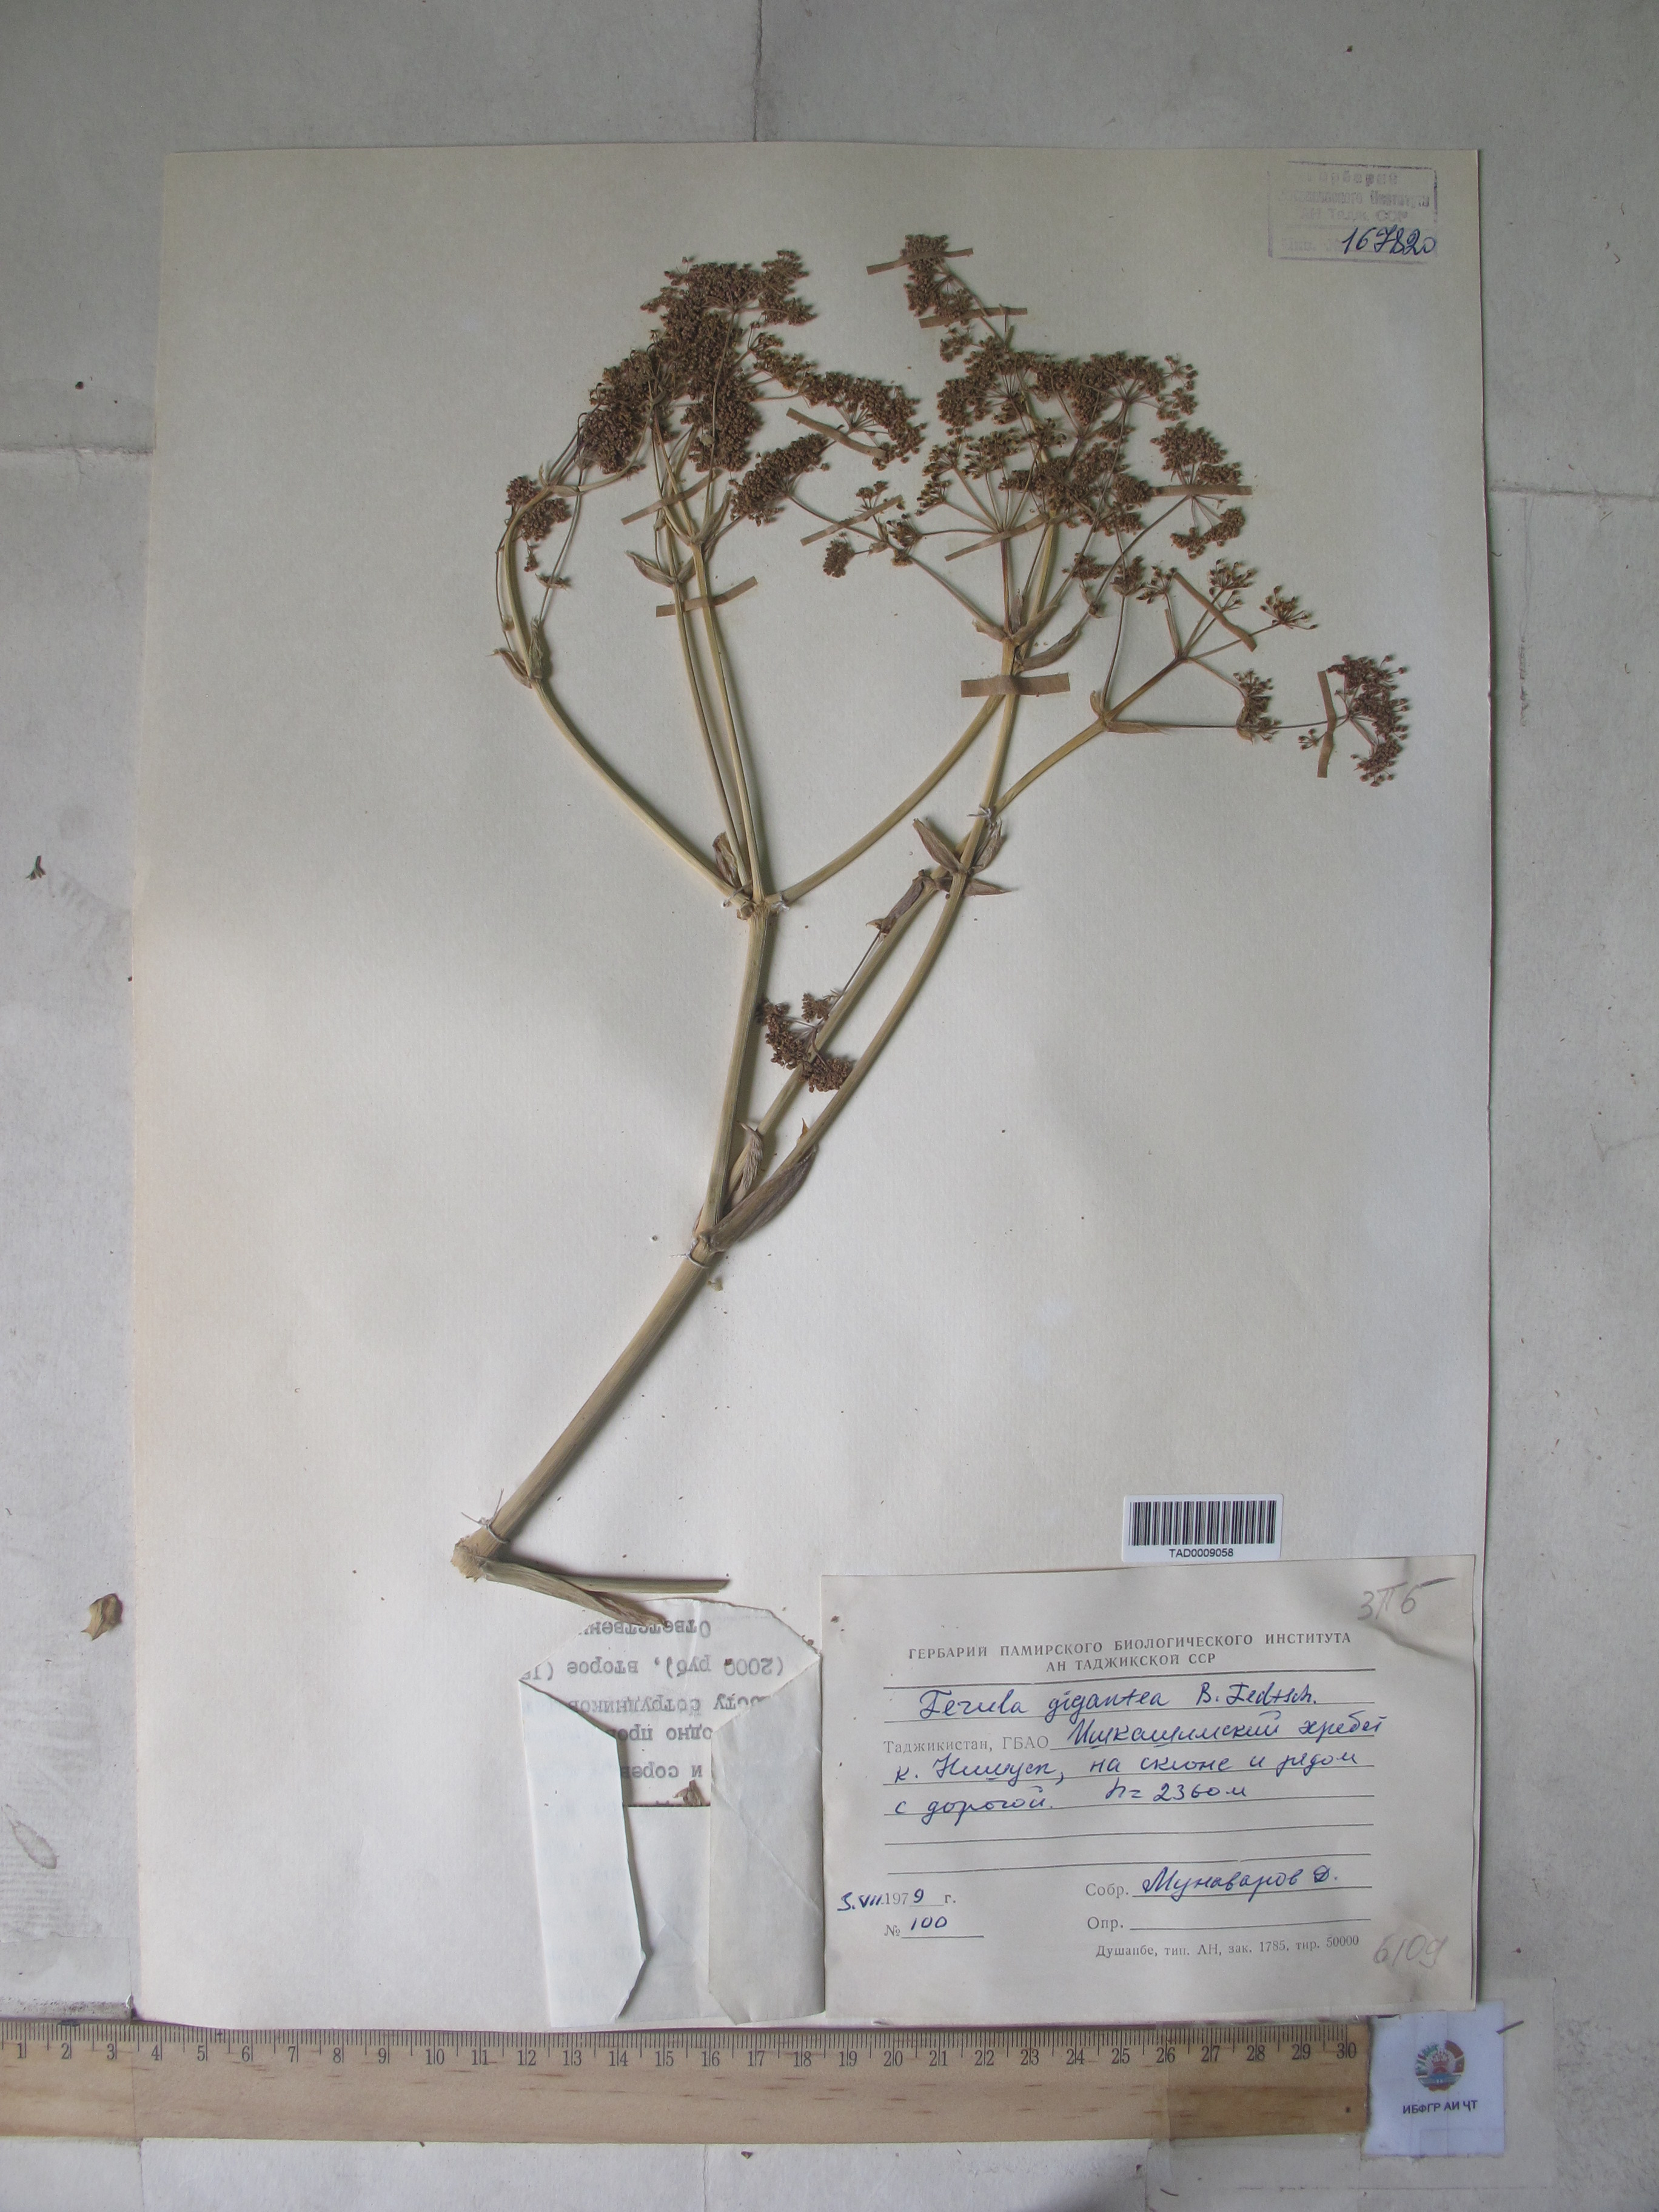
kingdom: Plantae
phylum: Tracheophyta
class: Magnoliopsida
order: Apiales
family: Apiaceae
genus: Ferula
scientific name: Ferula gigantea
